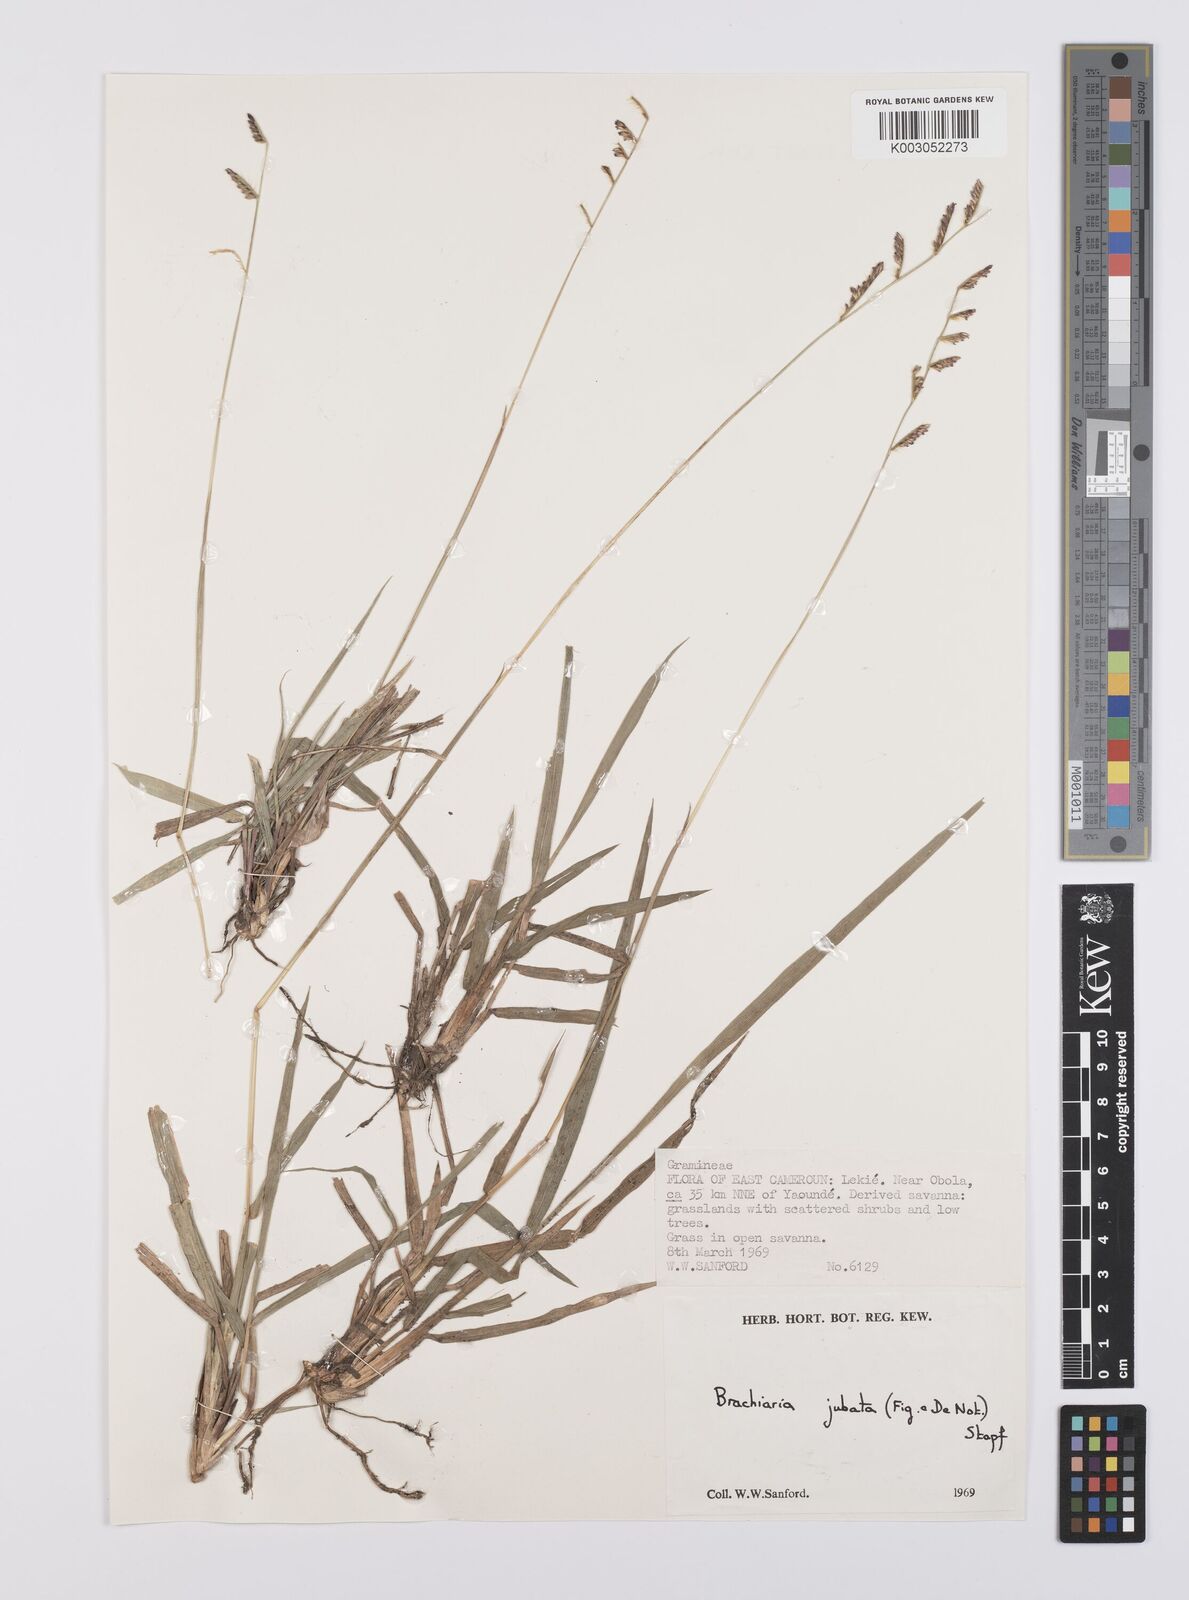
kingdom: Plantae
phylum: Tracheophyta
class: Liliopsida
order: Poales
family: Poaceae
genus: Urochloa
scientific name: Urochloa jubata
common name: Buffalograss
